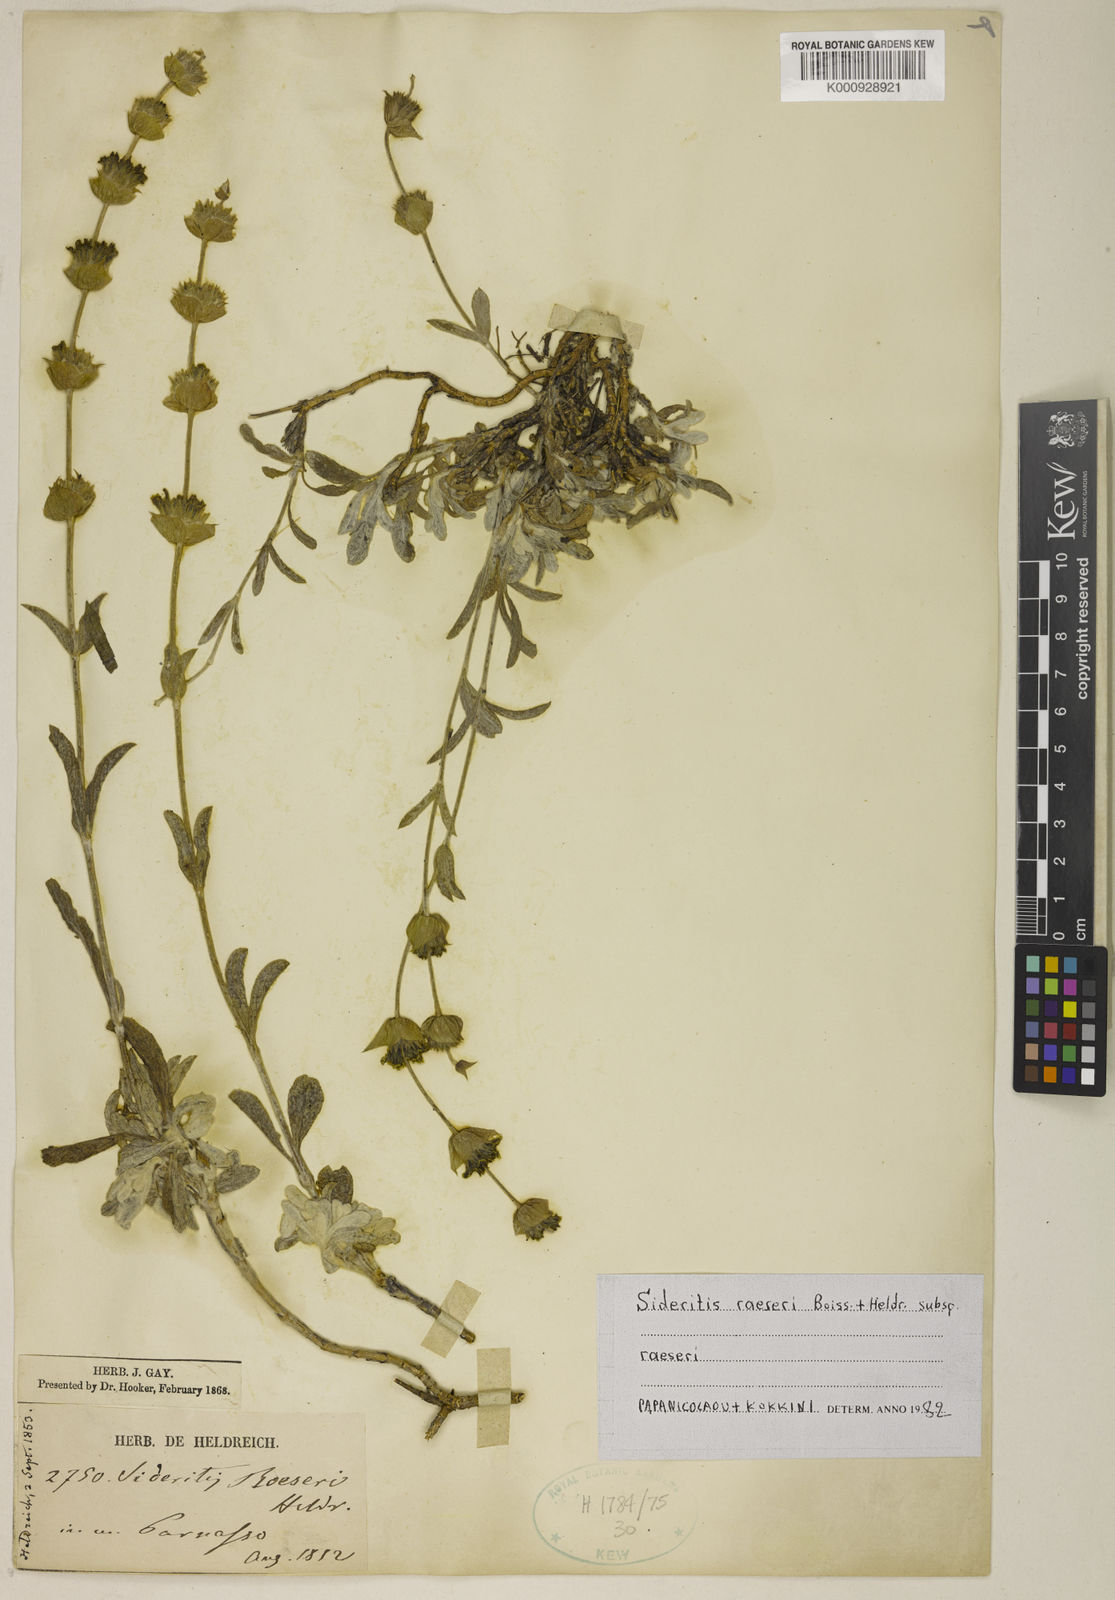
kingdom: Plantae
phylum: Tracheophyta
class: Magnoliopsida
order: Lamiales
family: Lamiaceae
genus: Sideritis
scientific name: Sideritis syriaca
